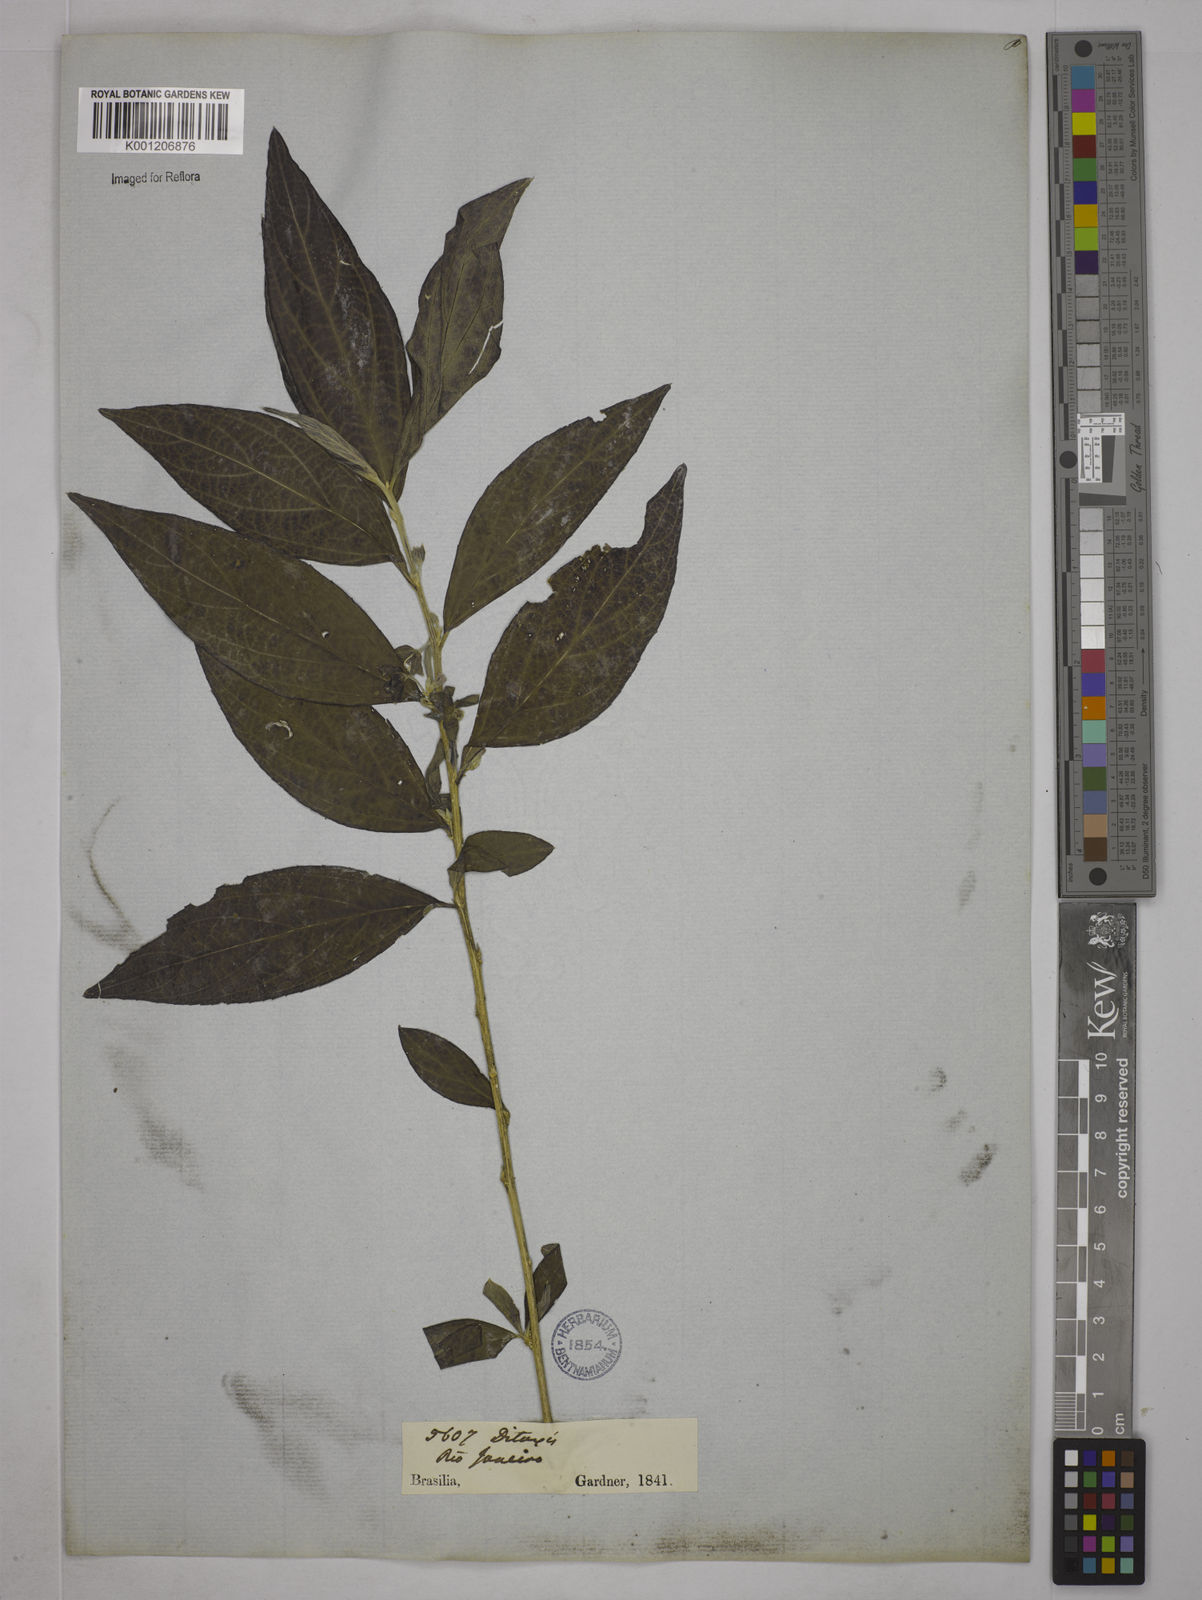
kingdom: Plantae
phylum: Tracheophyta
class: Magnoliopsida
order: Malpighiales
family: Euphorbiaceae
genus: Ditaxis
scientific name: Ditaxis simoniana
